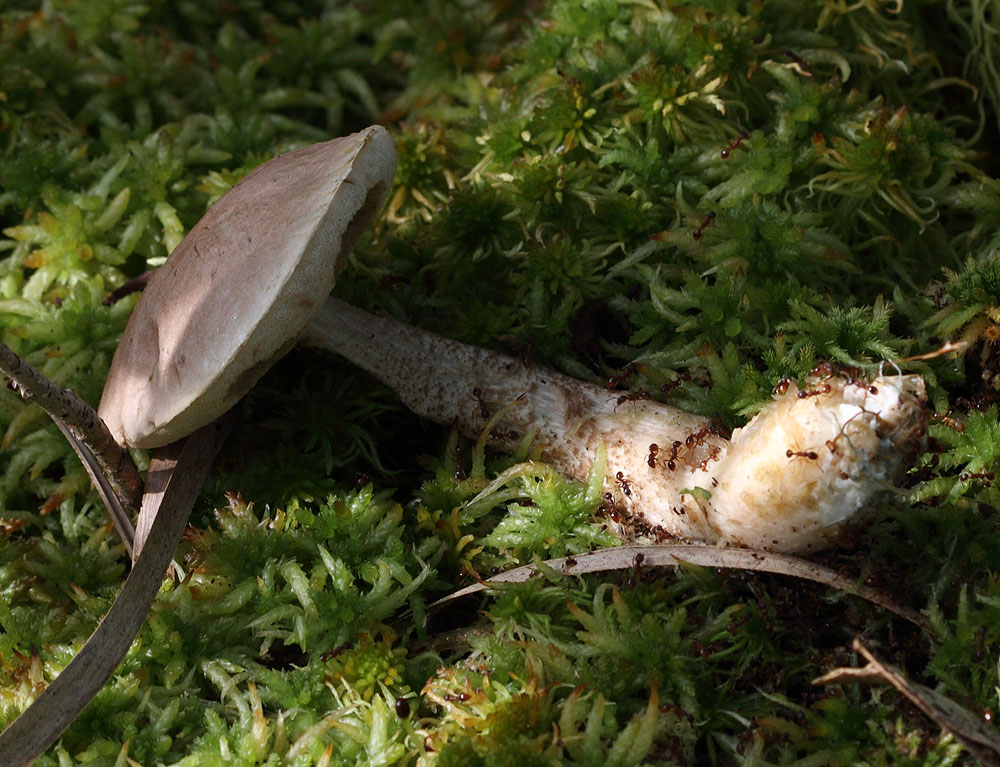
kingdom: Fungi
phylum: Basidiomycota
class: Agaricomycetes
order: Boletales
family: Boletaceae
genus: Leccinum
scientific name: Leccinum cyaneobasileucum
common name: almindelig skælrørhat
